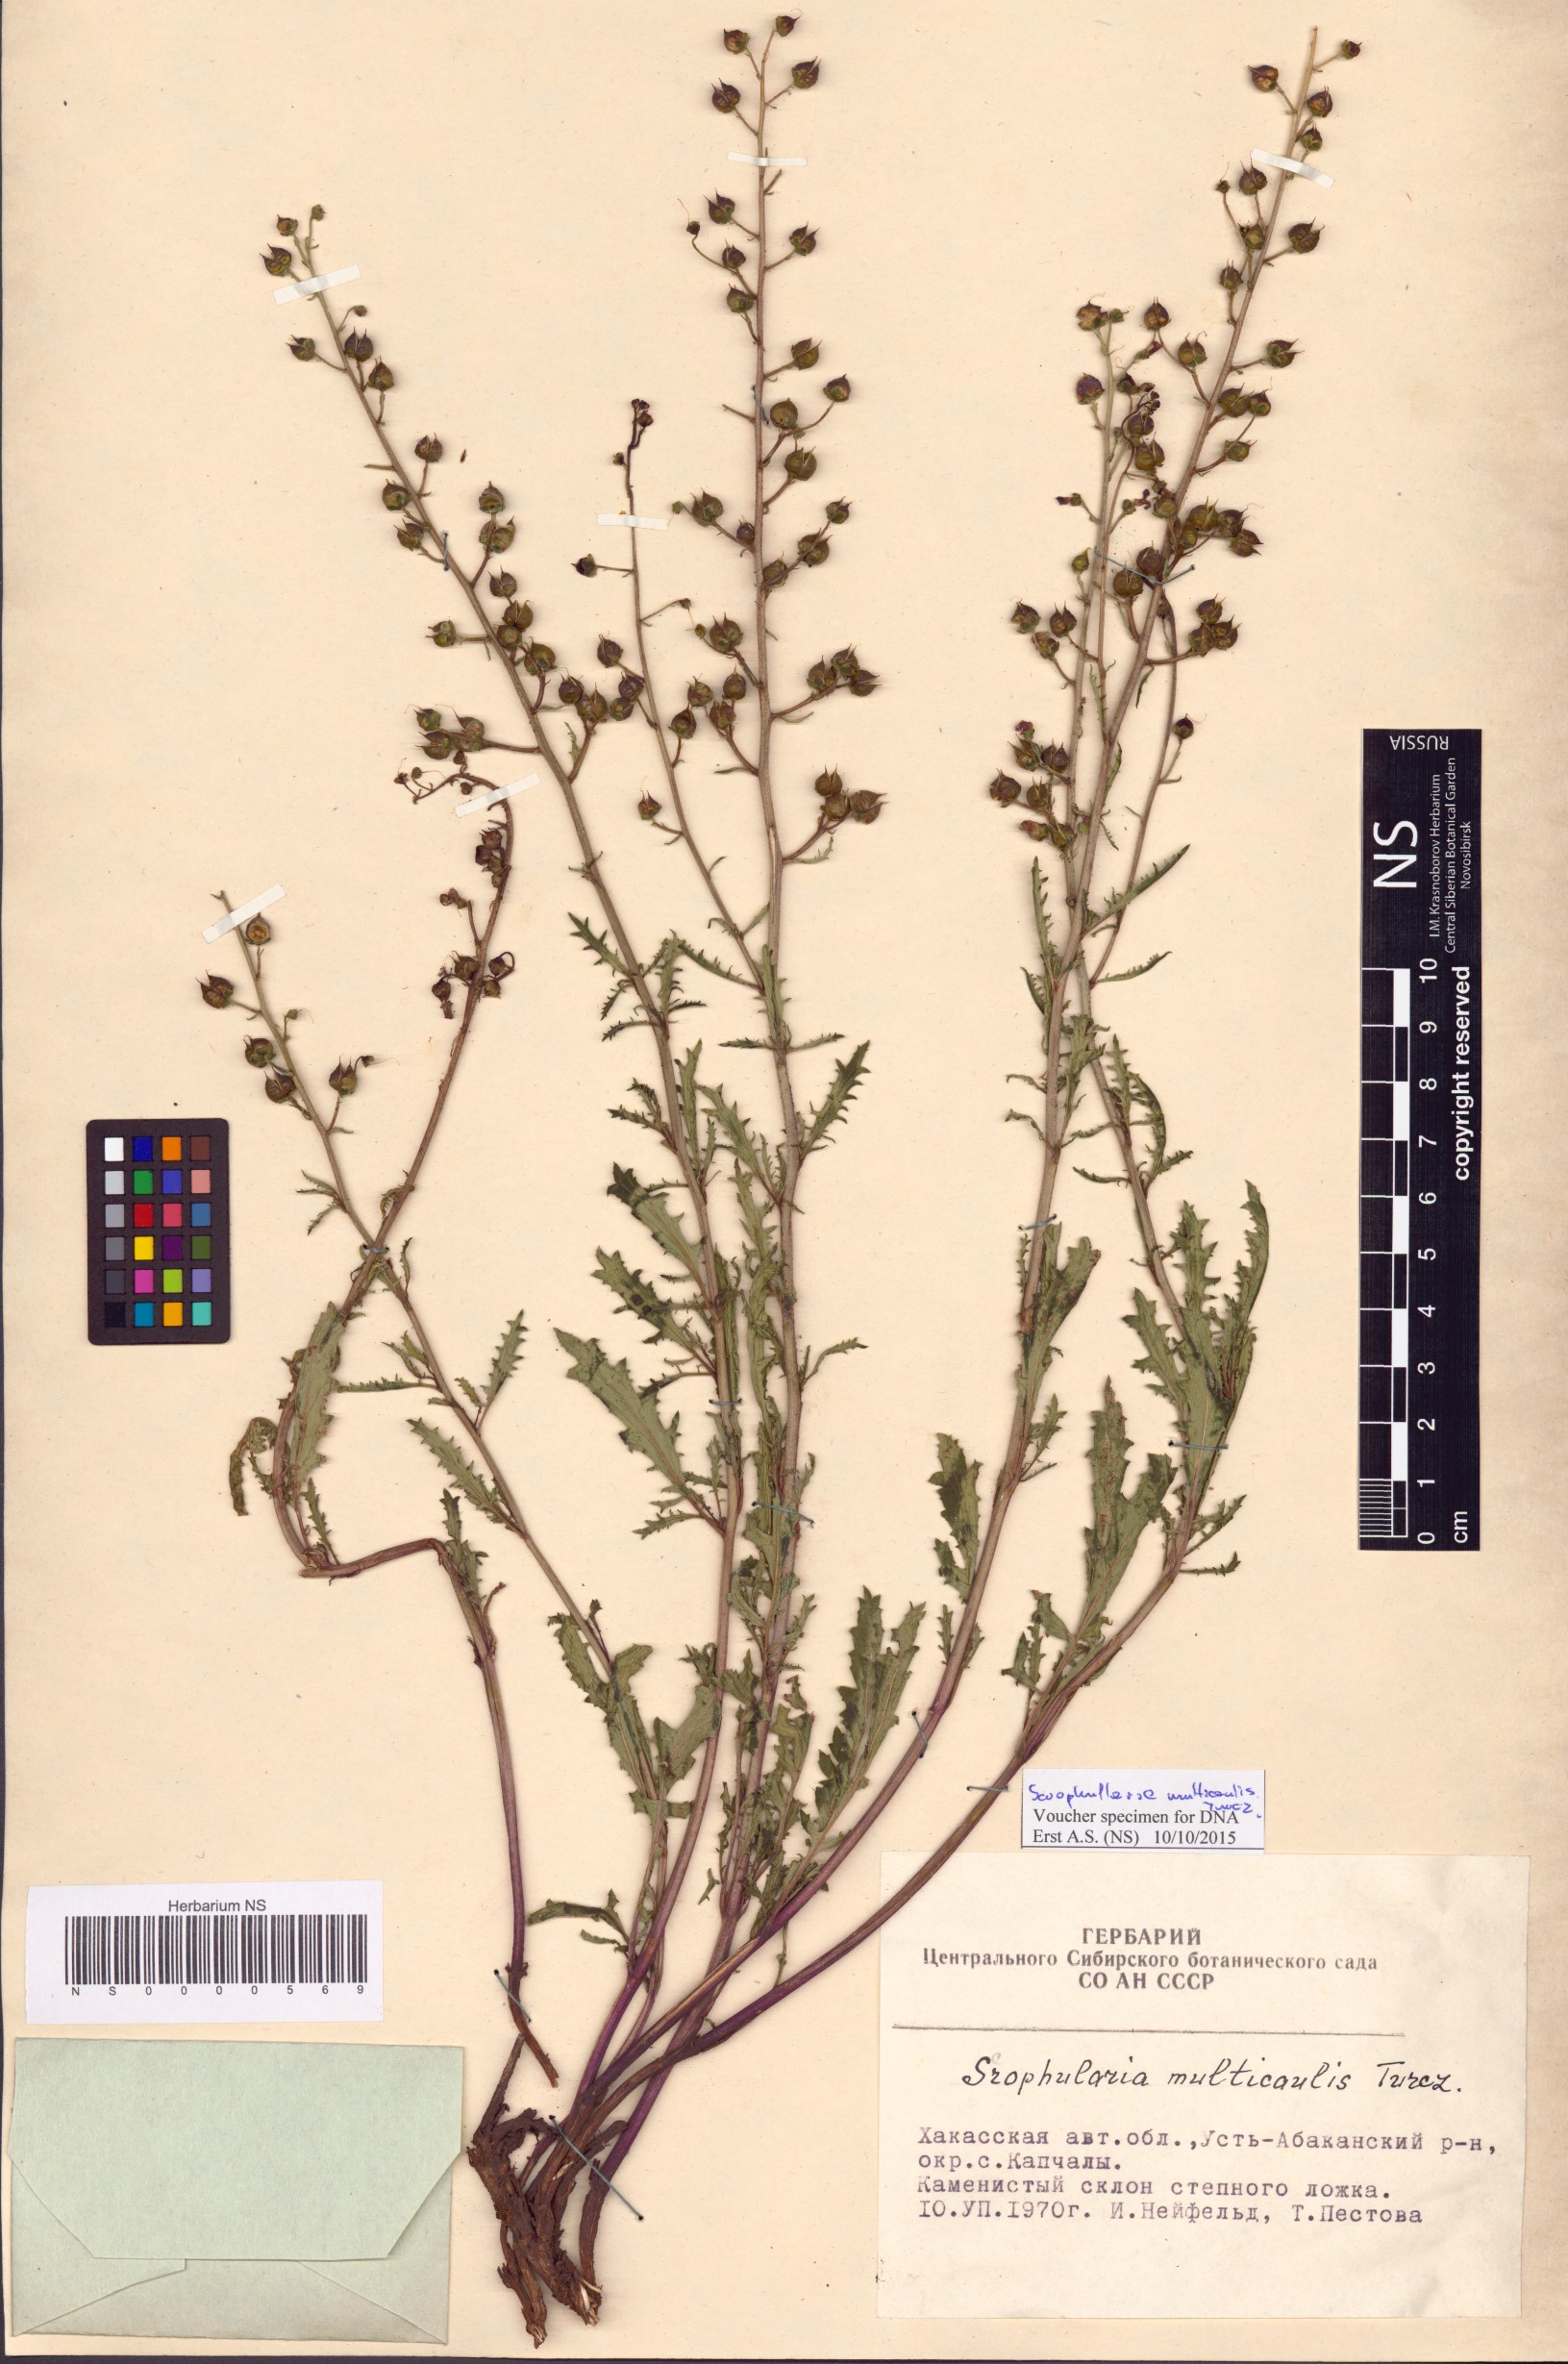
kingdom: Plantae
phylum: Tracheophyta
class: Magnoliopsida
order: Lamiales
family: Scrophulariaceae
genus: Scrophularia
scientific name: Scrophularia multicaulis
